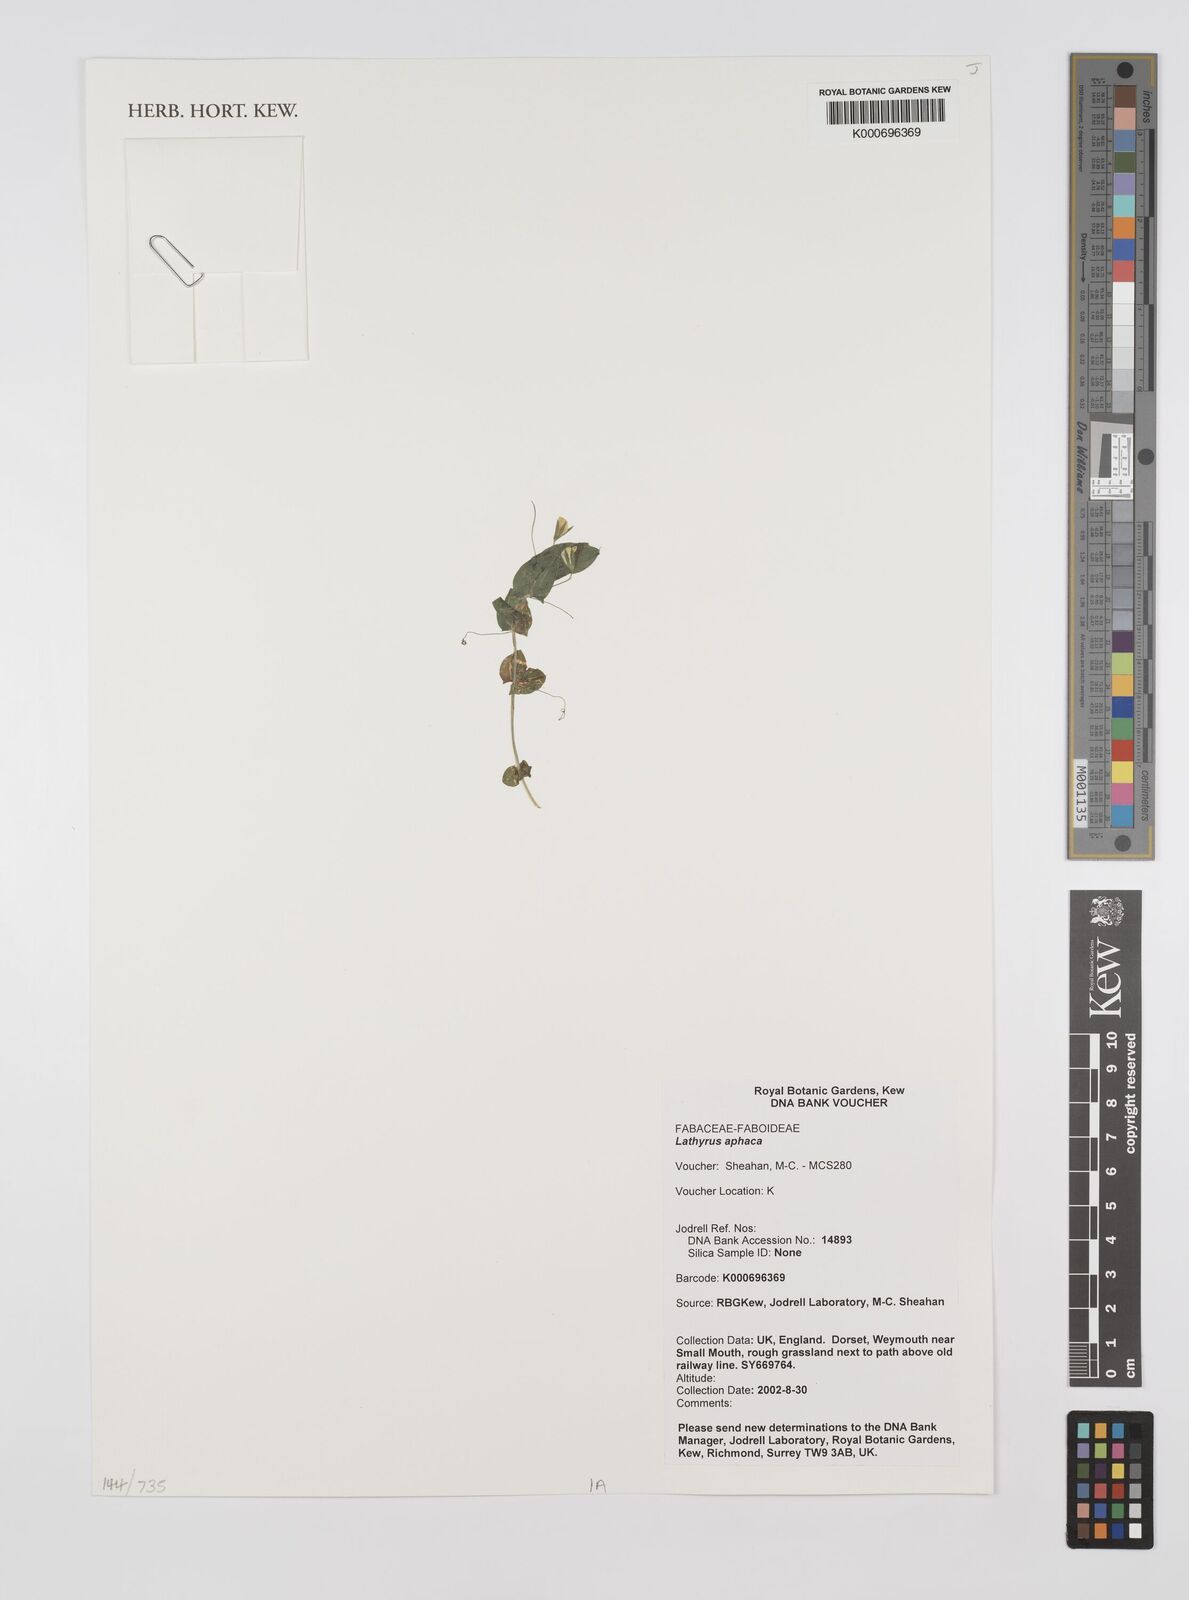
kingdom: Plantae
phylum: Tracheophyta
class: Magnoliopsida
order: Fabales
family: Fabaceae
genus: Lathyrus
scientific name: Lathyrus aphaca
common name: Yellow vetchling
